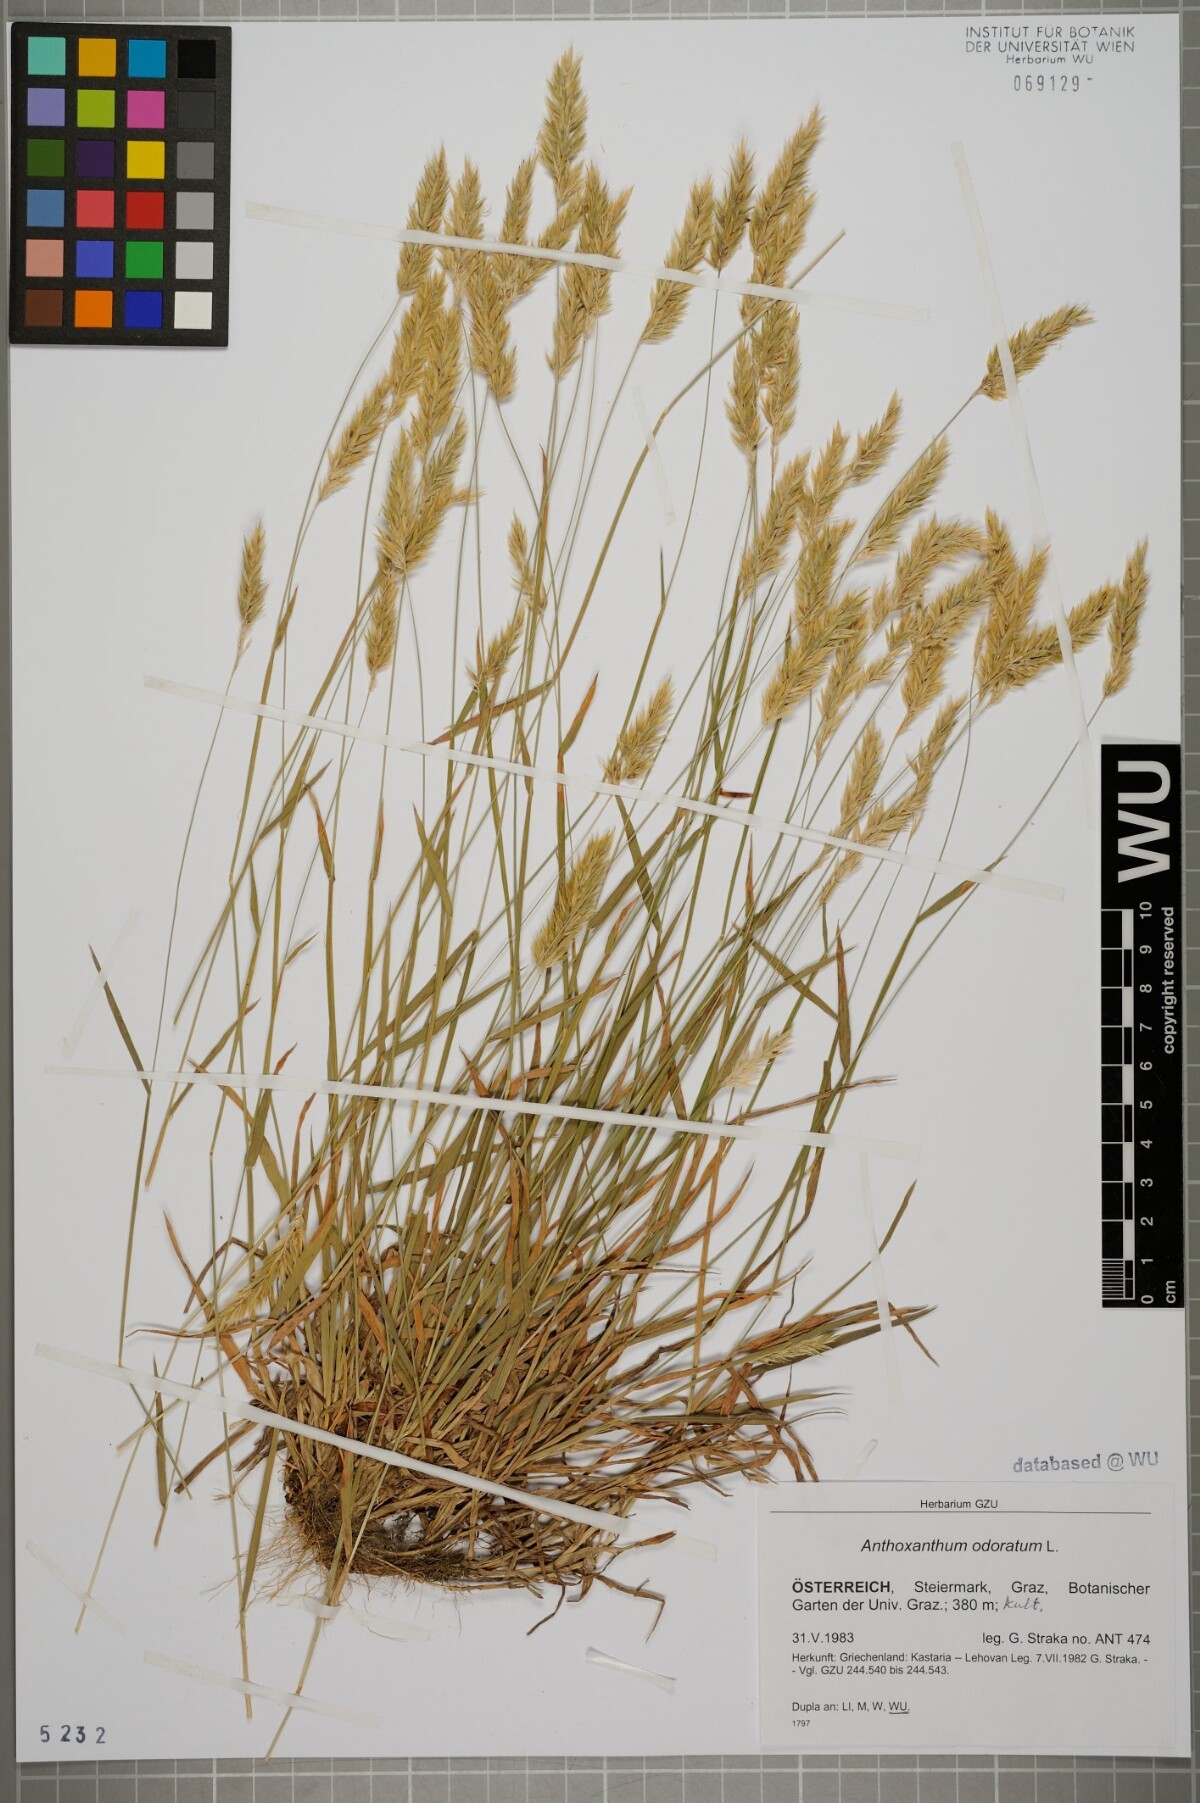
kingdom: Plantae
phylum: Tracheophyta
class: Liliopsida
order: Poales
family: Poaceae
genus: Anthoxanthum
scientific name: Anthoxanthum odoratum
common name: Sweet vernalgrass
